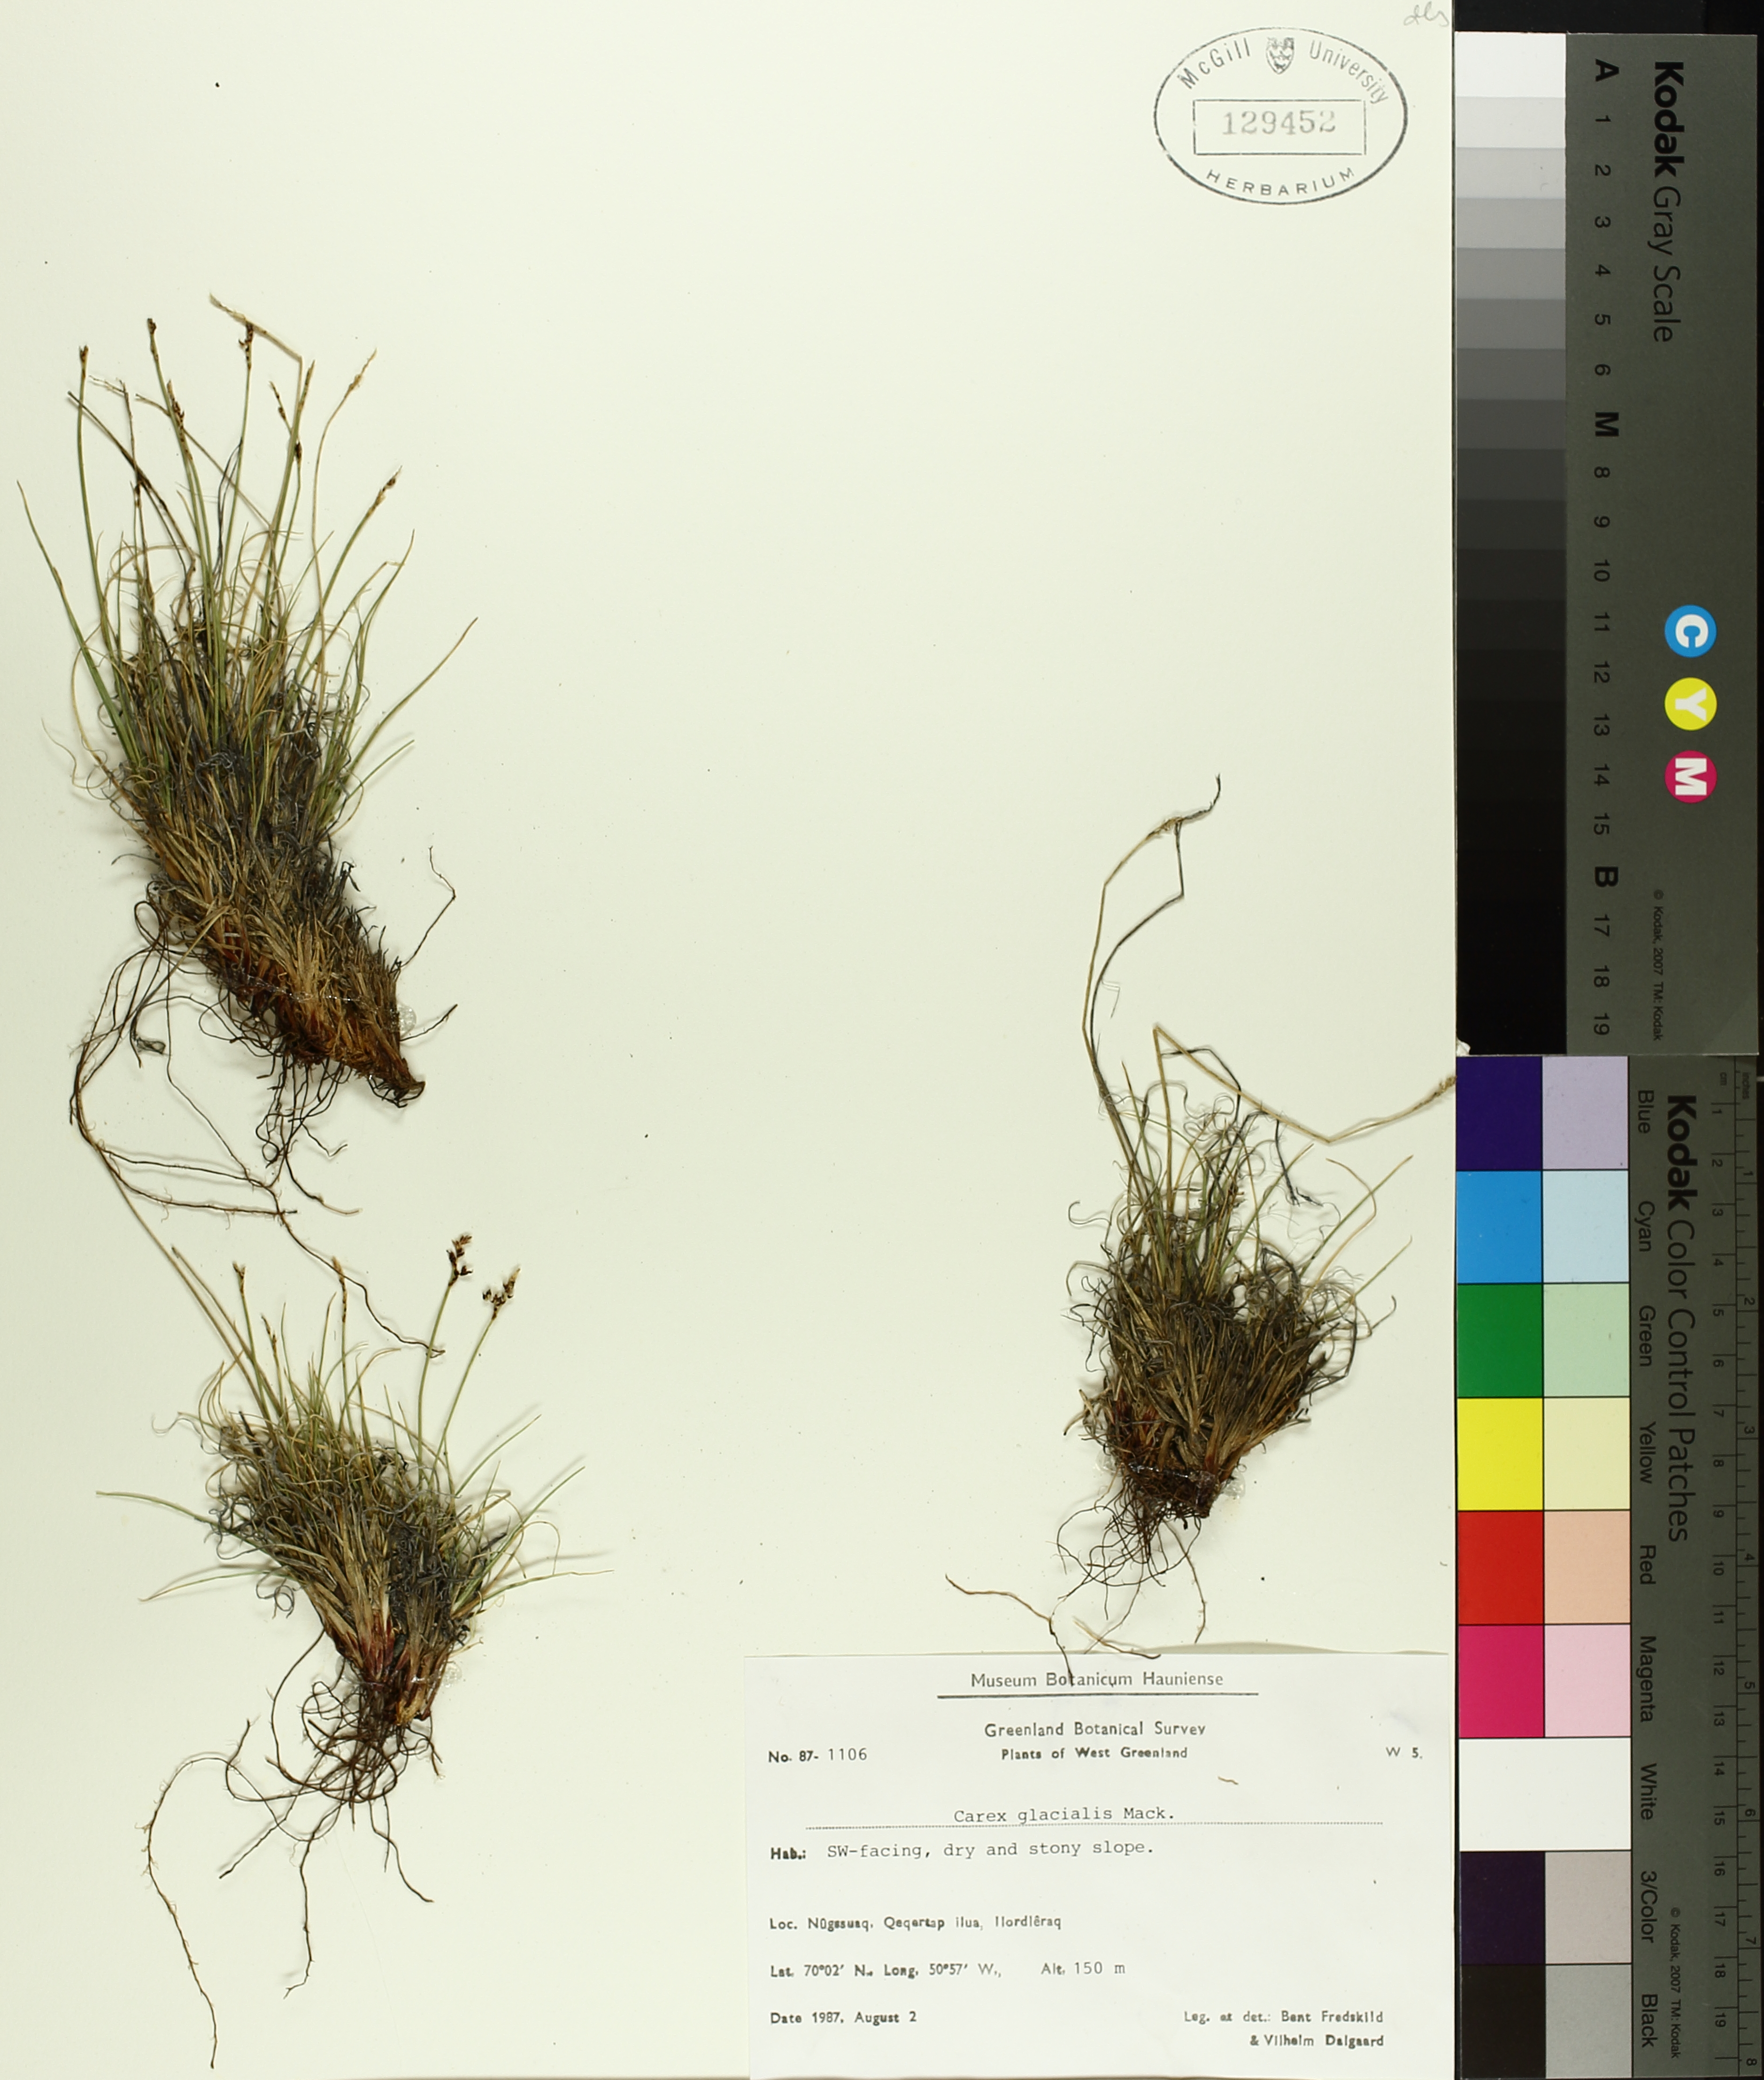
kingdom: Plantae
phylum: Tracheophyta
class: Liliopsida
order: Poales
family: Cyperaceae
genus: Carex
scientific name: Carex glacialis
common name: Newfoundland sedge
